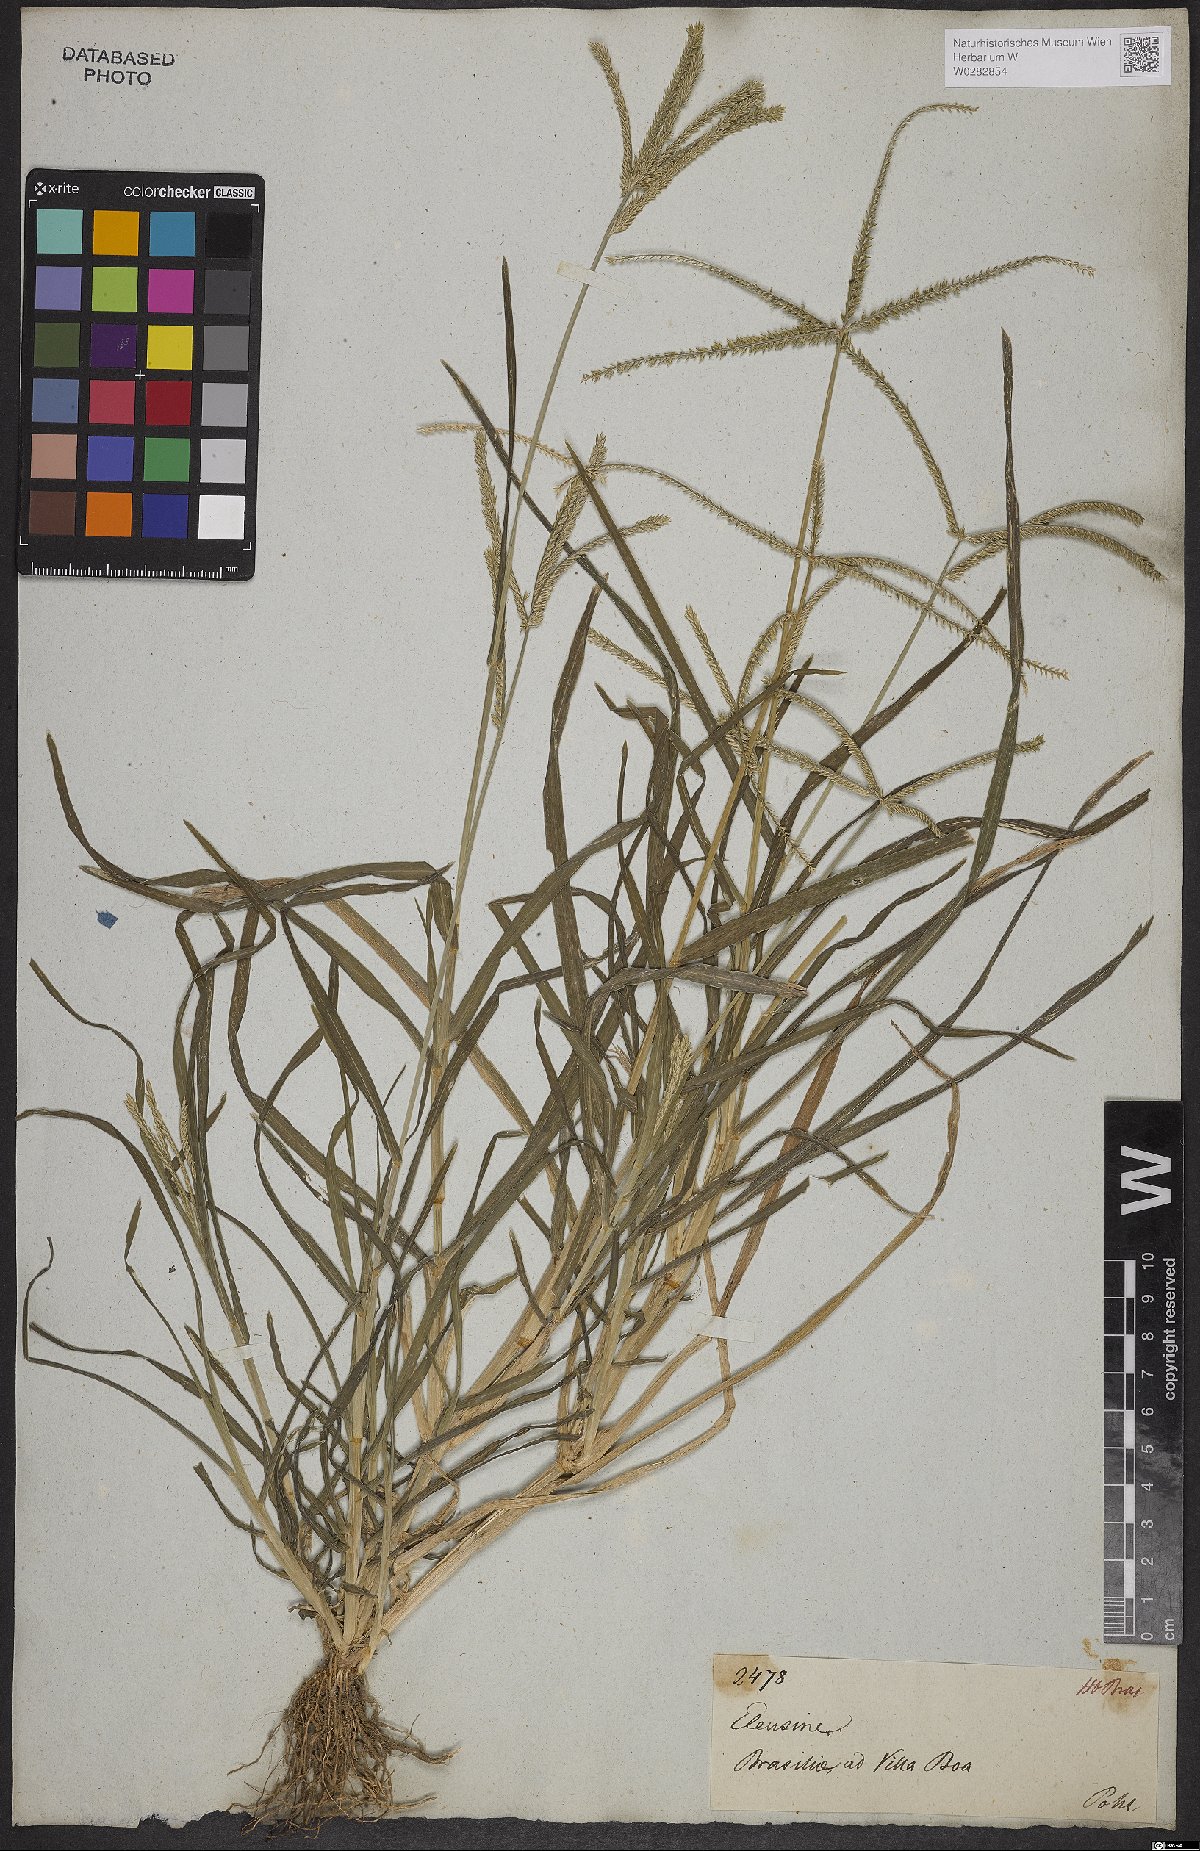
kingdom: Plantae
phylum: Tracheophyta
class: Liliopsida
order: Poales
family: Poaceae
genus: Eleusine
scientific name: Eleusine indica
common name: Yard-grass
